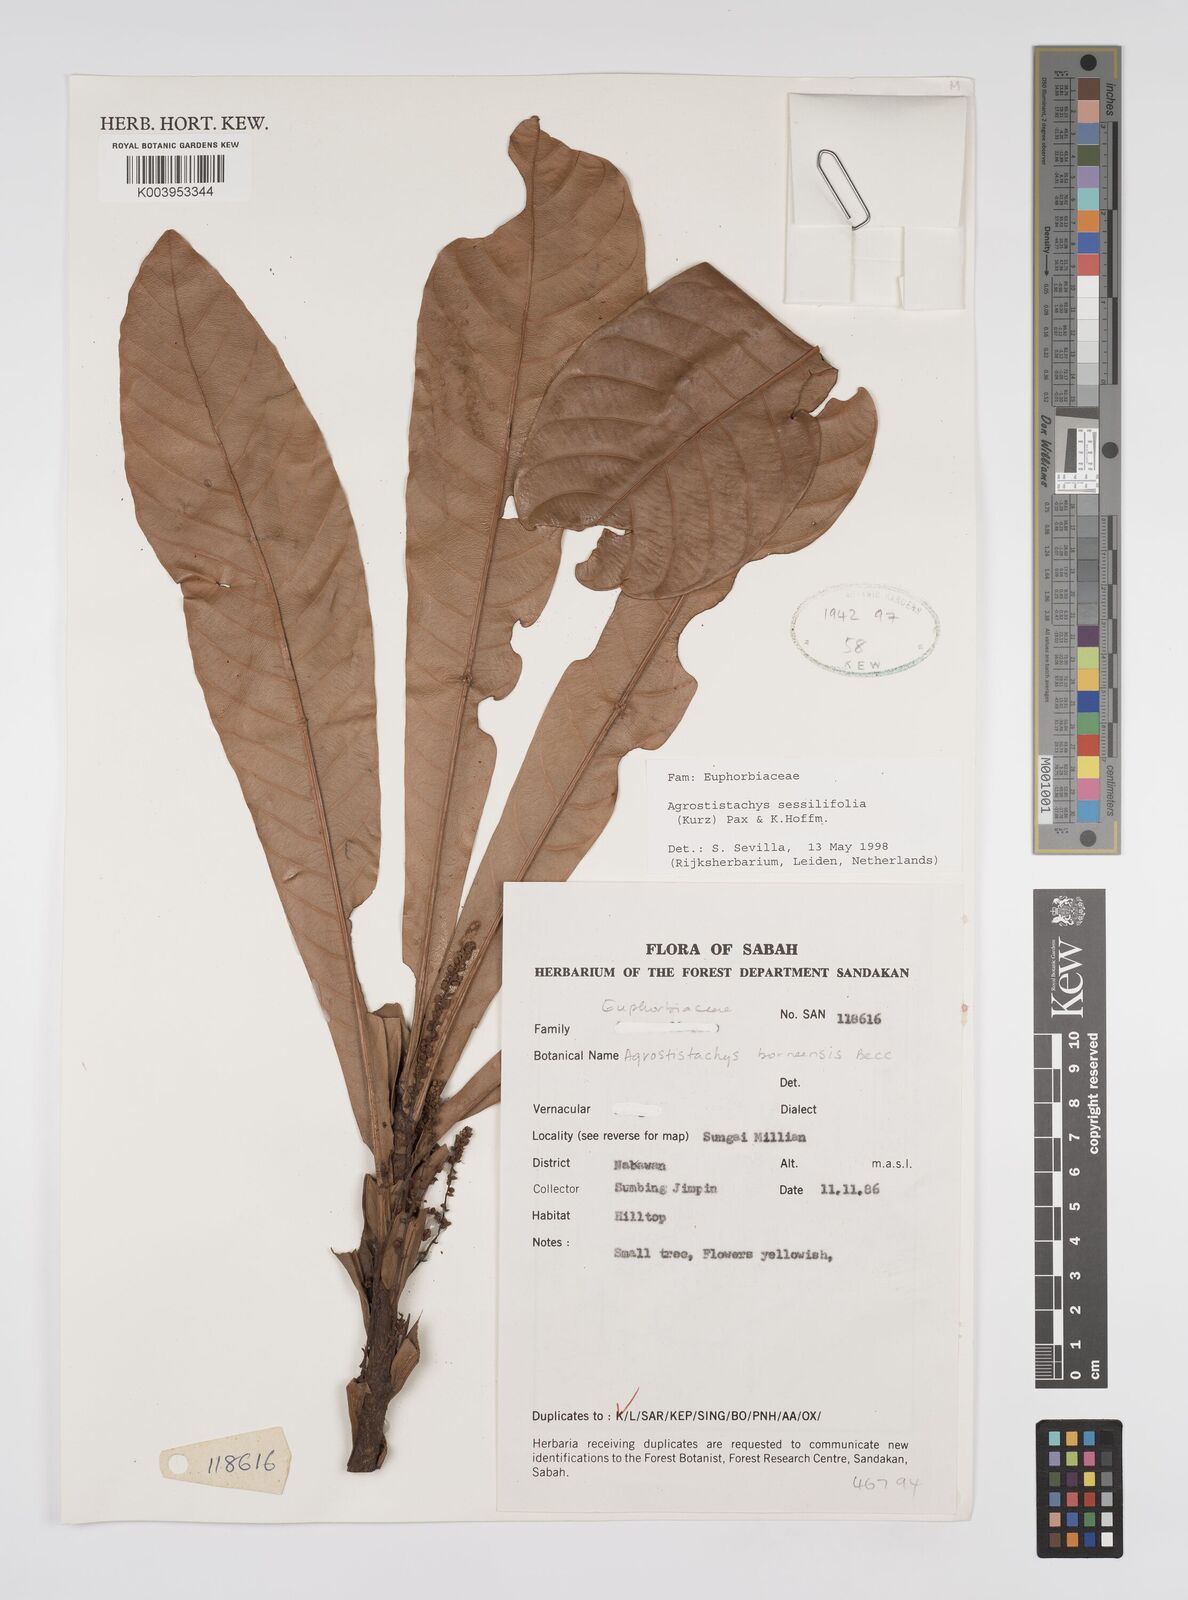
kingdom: Plantae
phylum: Tracheophyta
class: Magnoliopsida
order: Malpighiales
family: Euphorbiaceae
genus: Agrostistachys
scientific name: Agrostistachys sessilifolia
